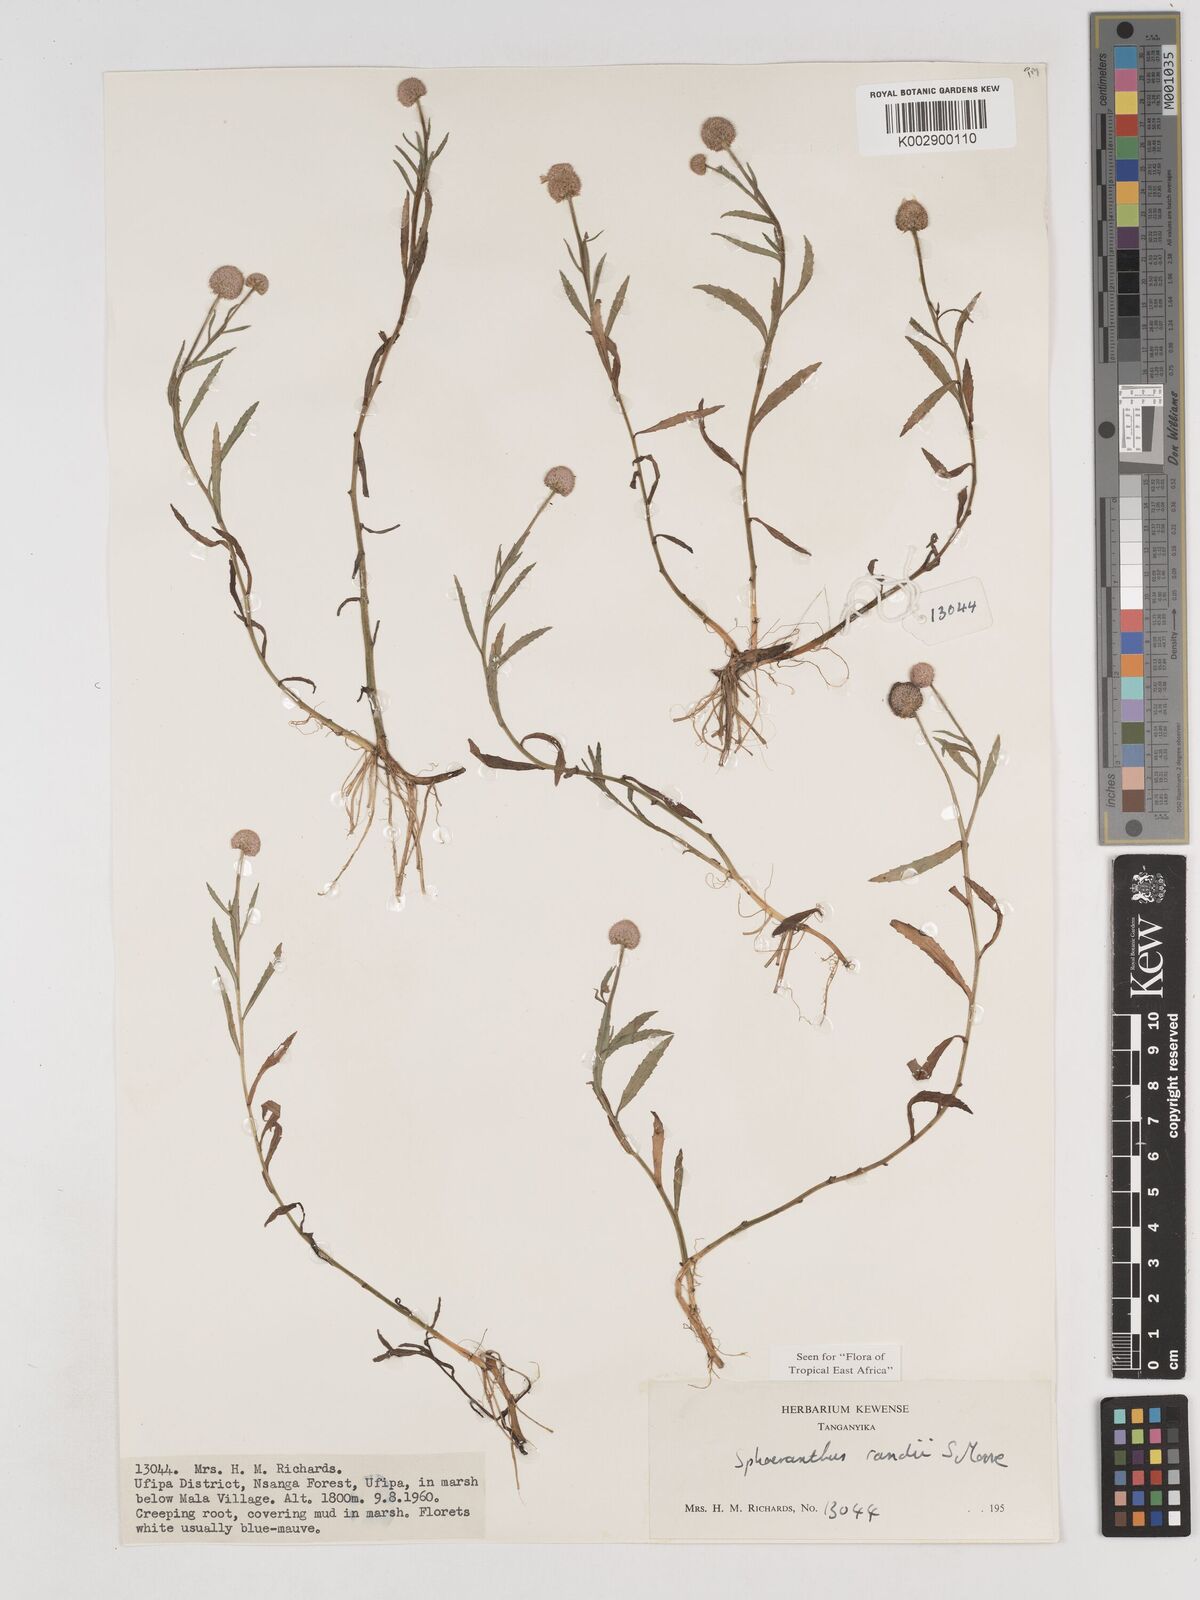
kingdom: Plantae
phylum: Tracheophyta
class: Magnoliopsida
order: Asterales
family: Asteraceae
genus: Sphaeranthus
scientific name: Sphaeranthus randii
